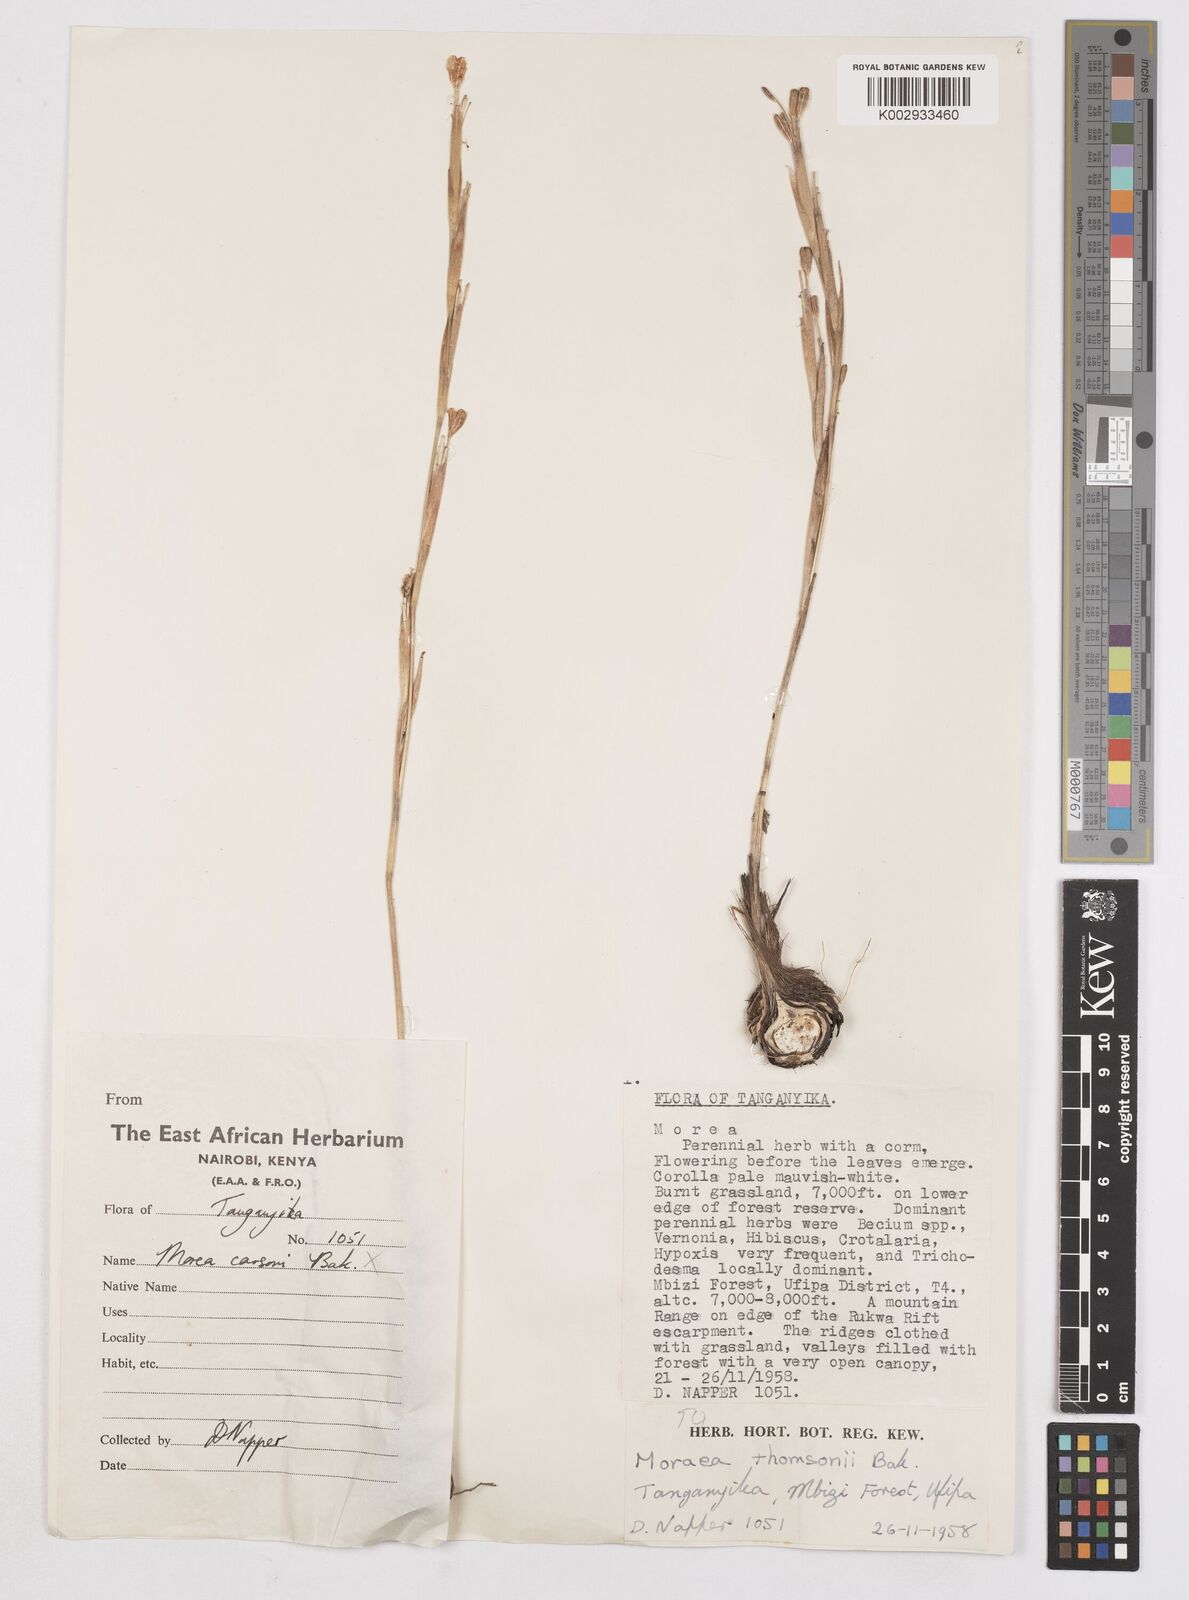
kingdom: Plantae
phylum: Tracheophyta
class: Liliopsida
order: Asparagales
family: Iridaceae
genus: Moraea
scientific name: Moraea thomsonii
